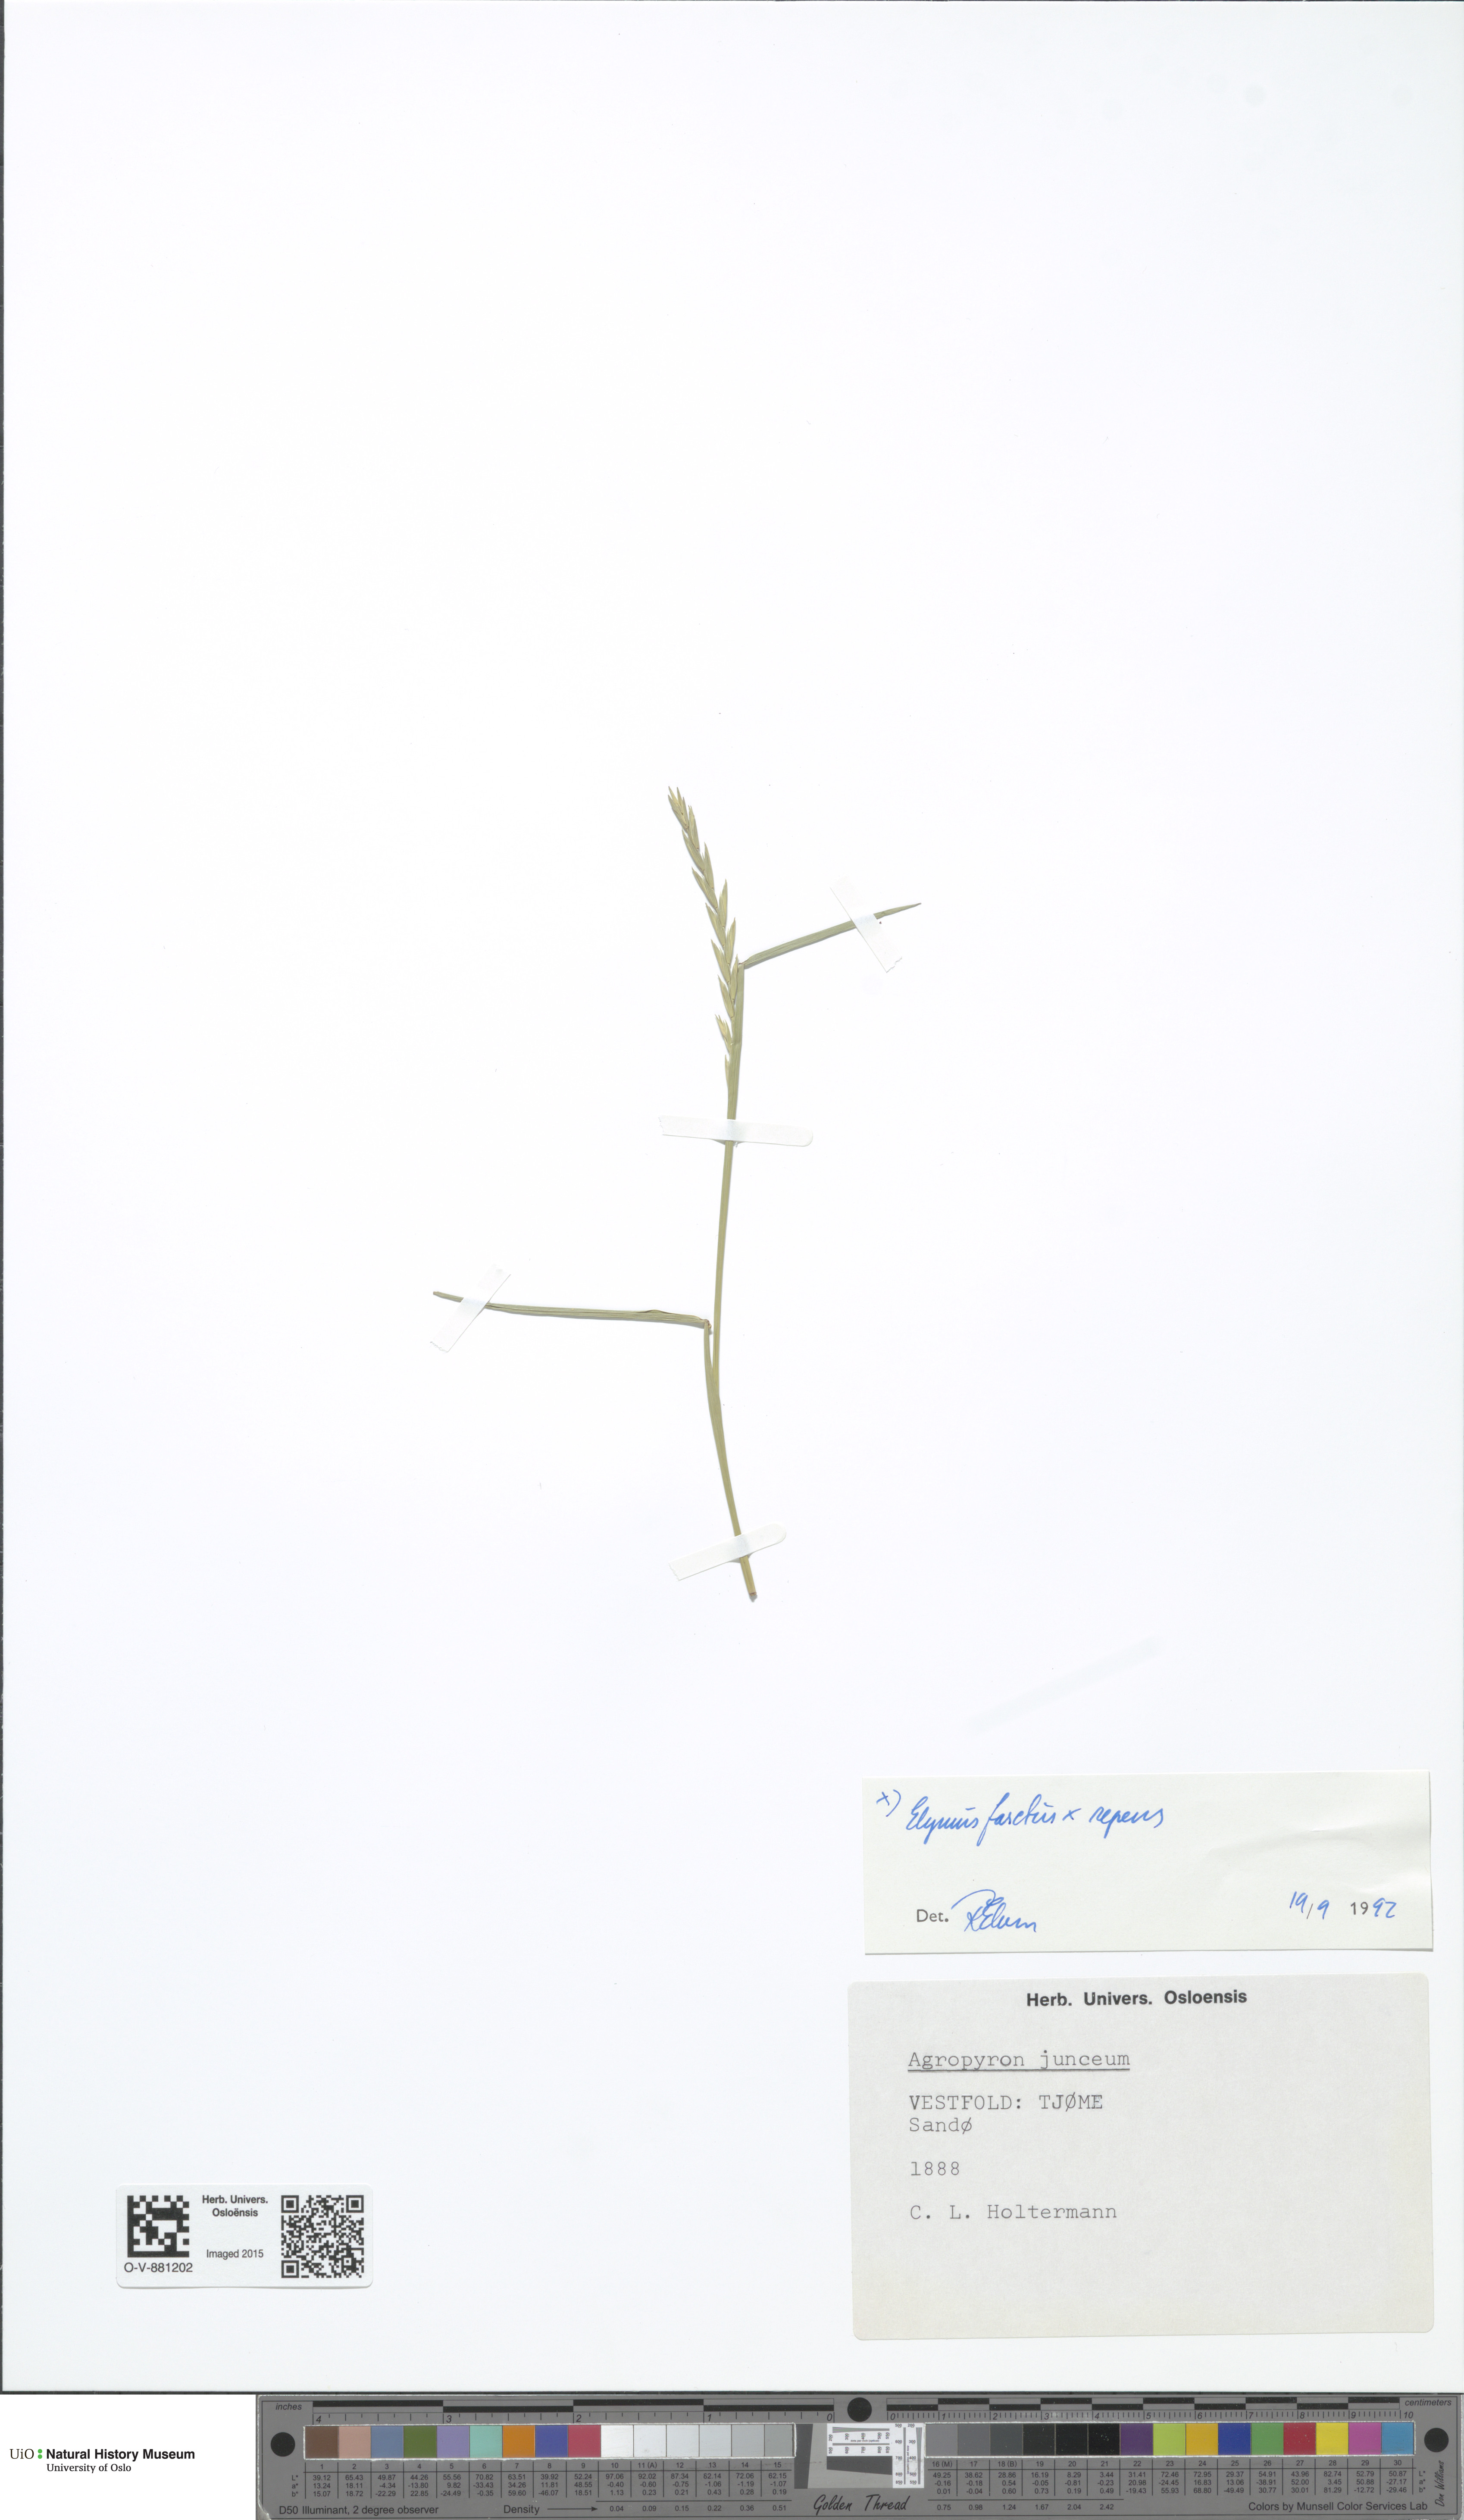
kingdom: Plantae
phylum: Tracheophyta
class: Liliopsida
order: Poales
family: Poaceae
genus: Elymus
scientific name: Elymus
